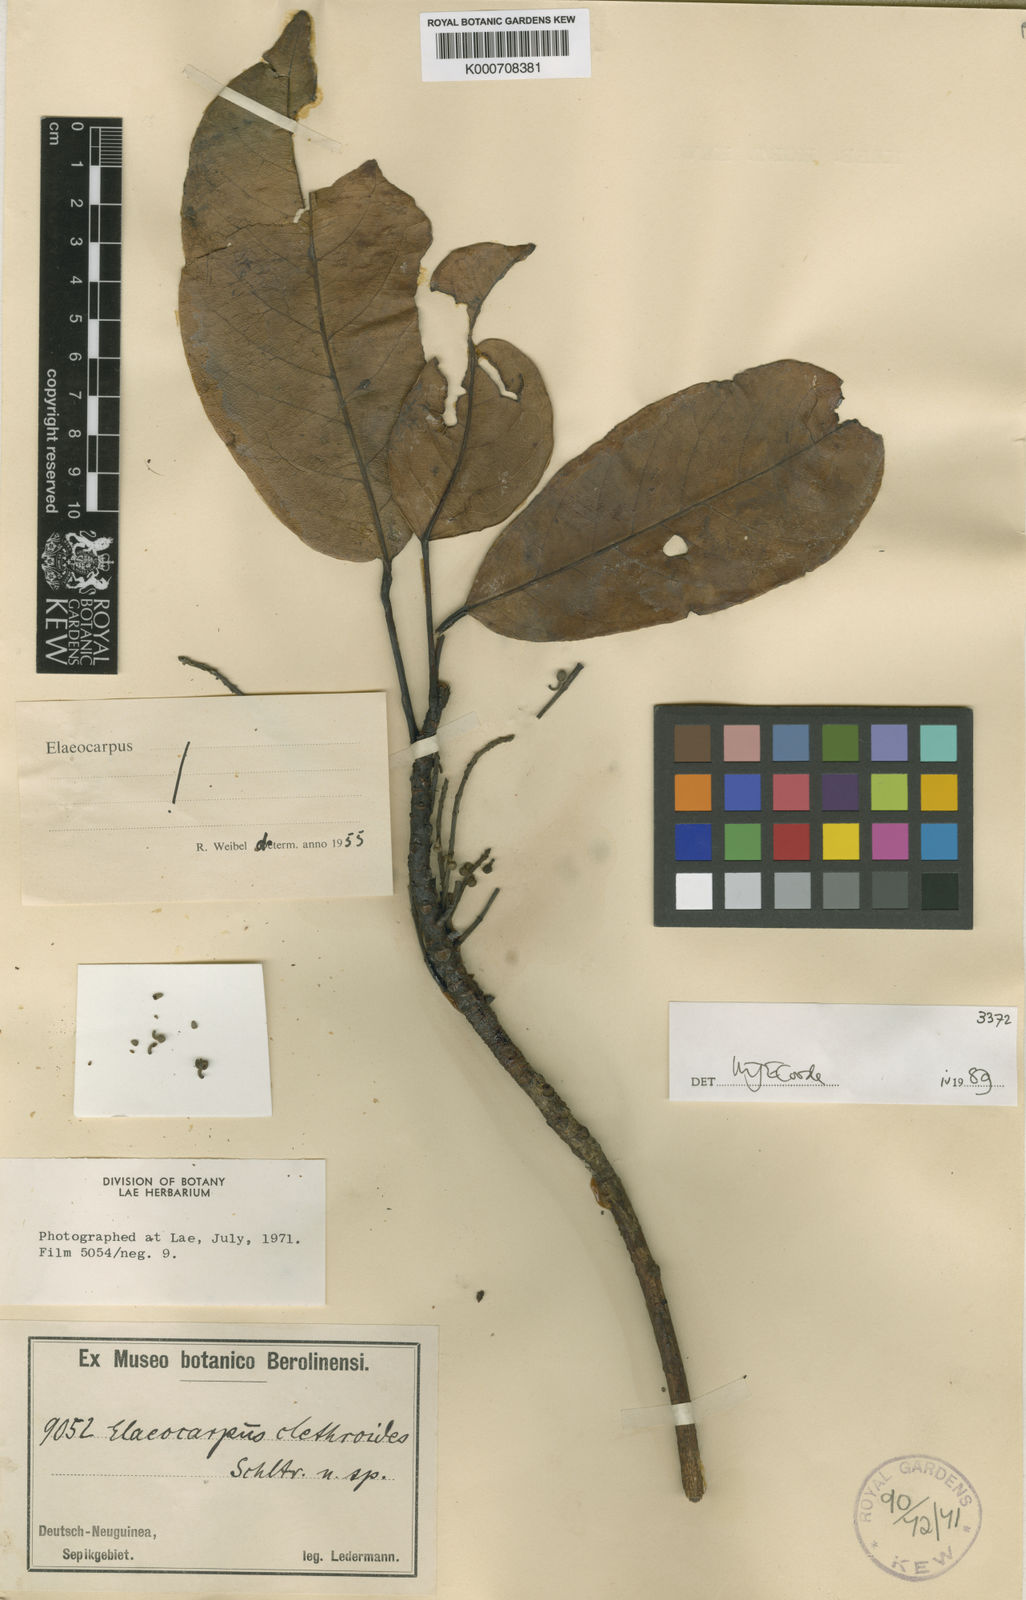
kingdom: Plantae
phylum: Tracheophyta
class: Magnoliopsida
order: Oxalidales
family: Elaeocarpaceae
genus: Elaeocarpus
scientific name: Elaeocarpus clethroides
